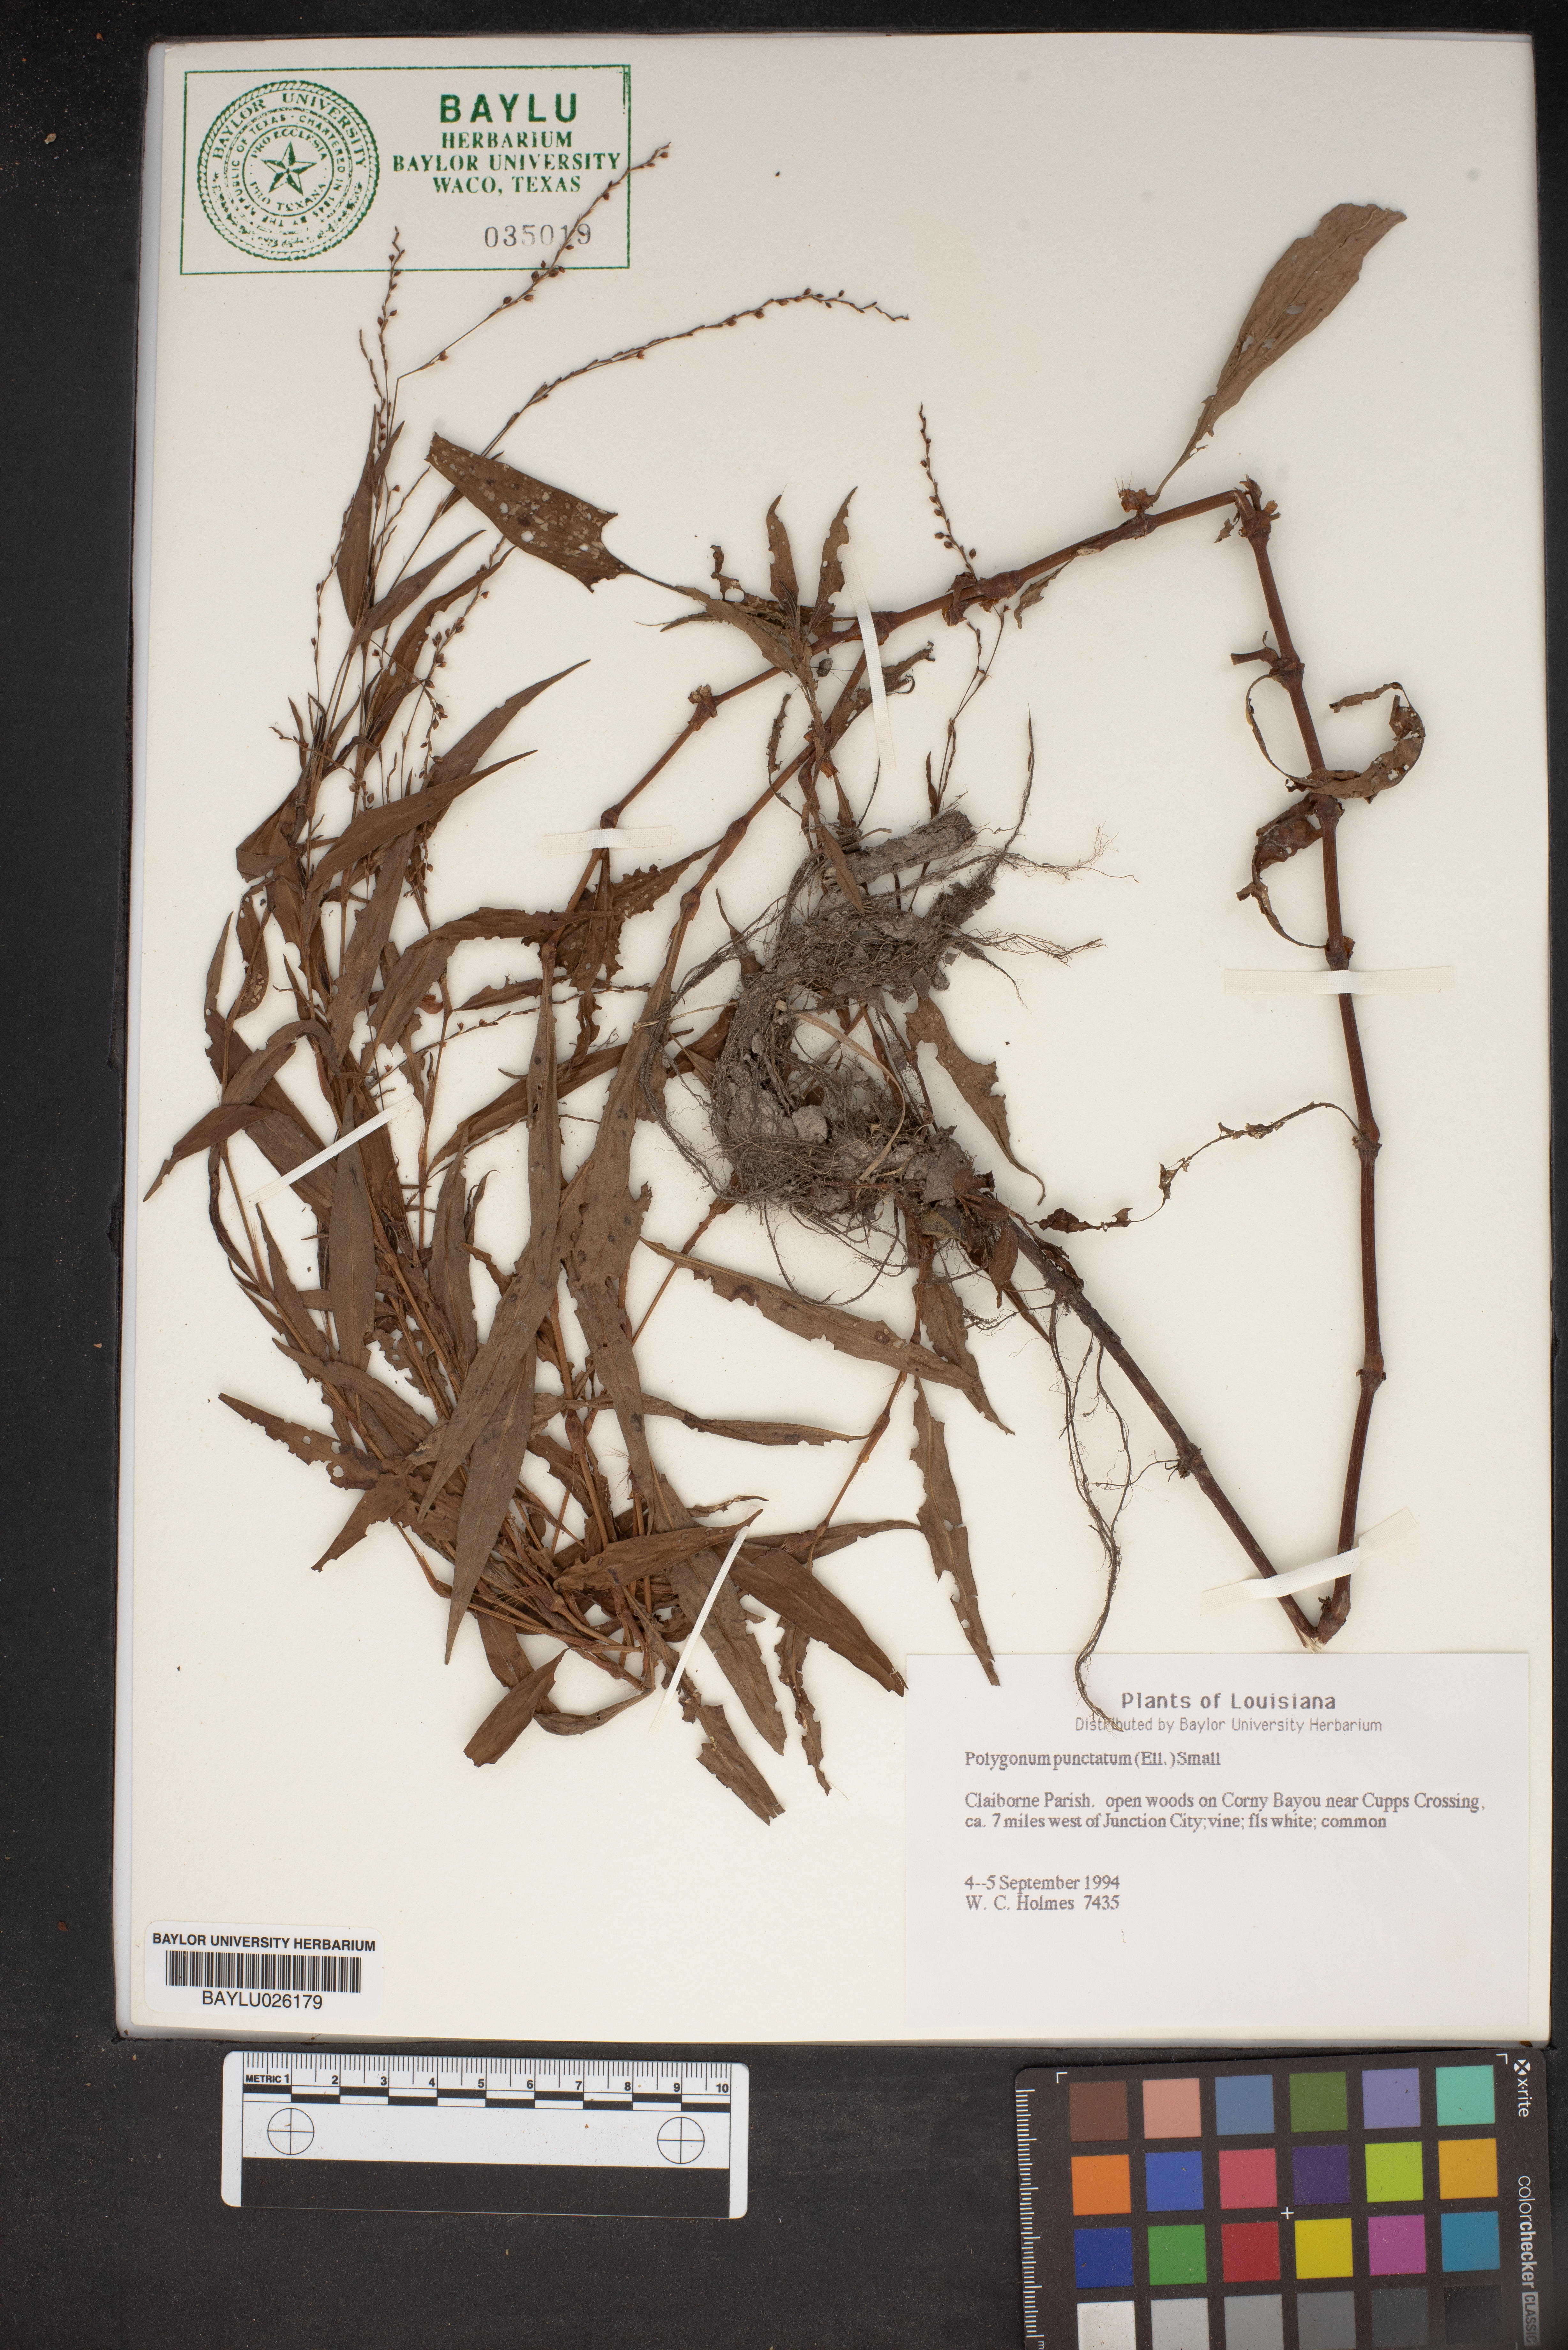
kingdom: Plantae
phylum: Tracheophyta
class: Magnoliopsida
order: Caryophyllales
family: Polygonaceae
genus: Persicaria
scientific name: Persicaria punctata
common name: Dotted smartweed
